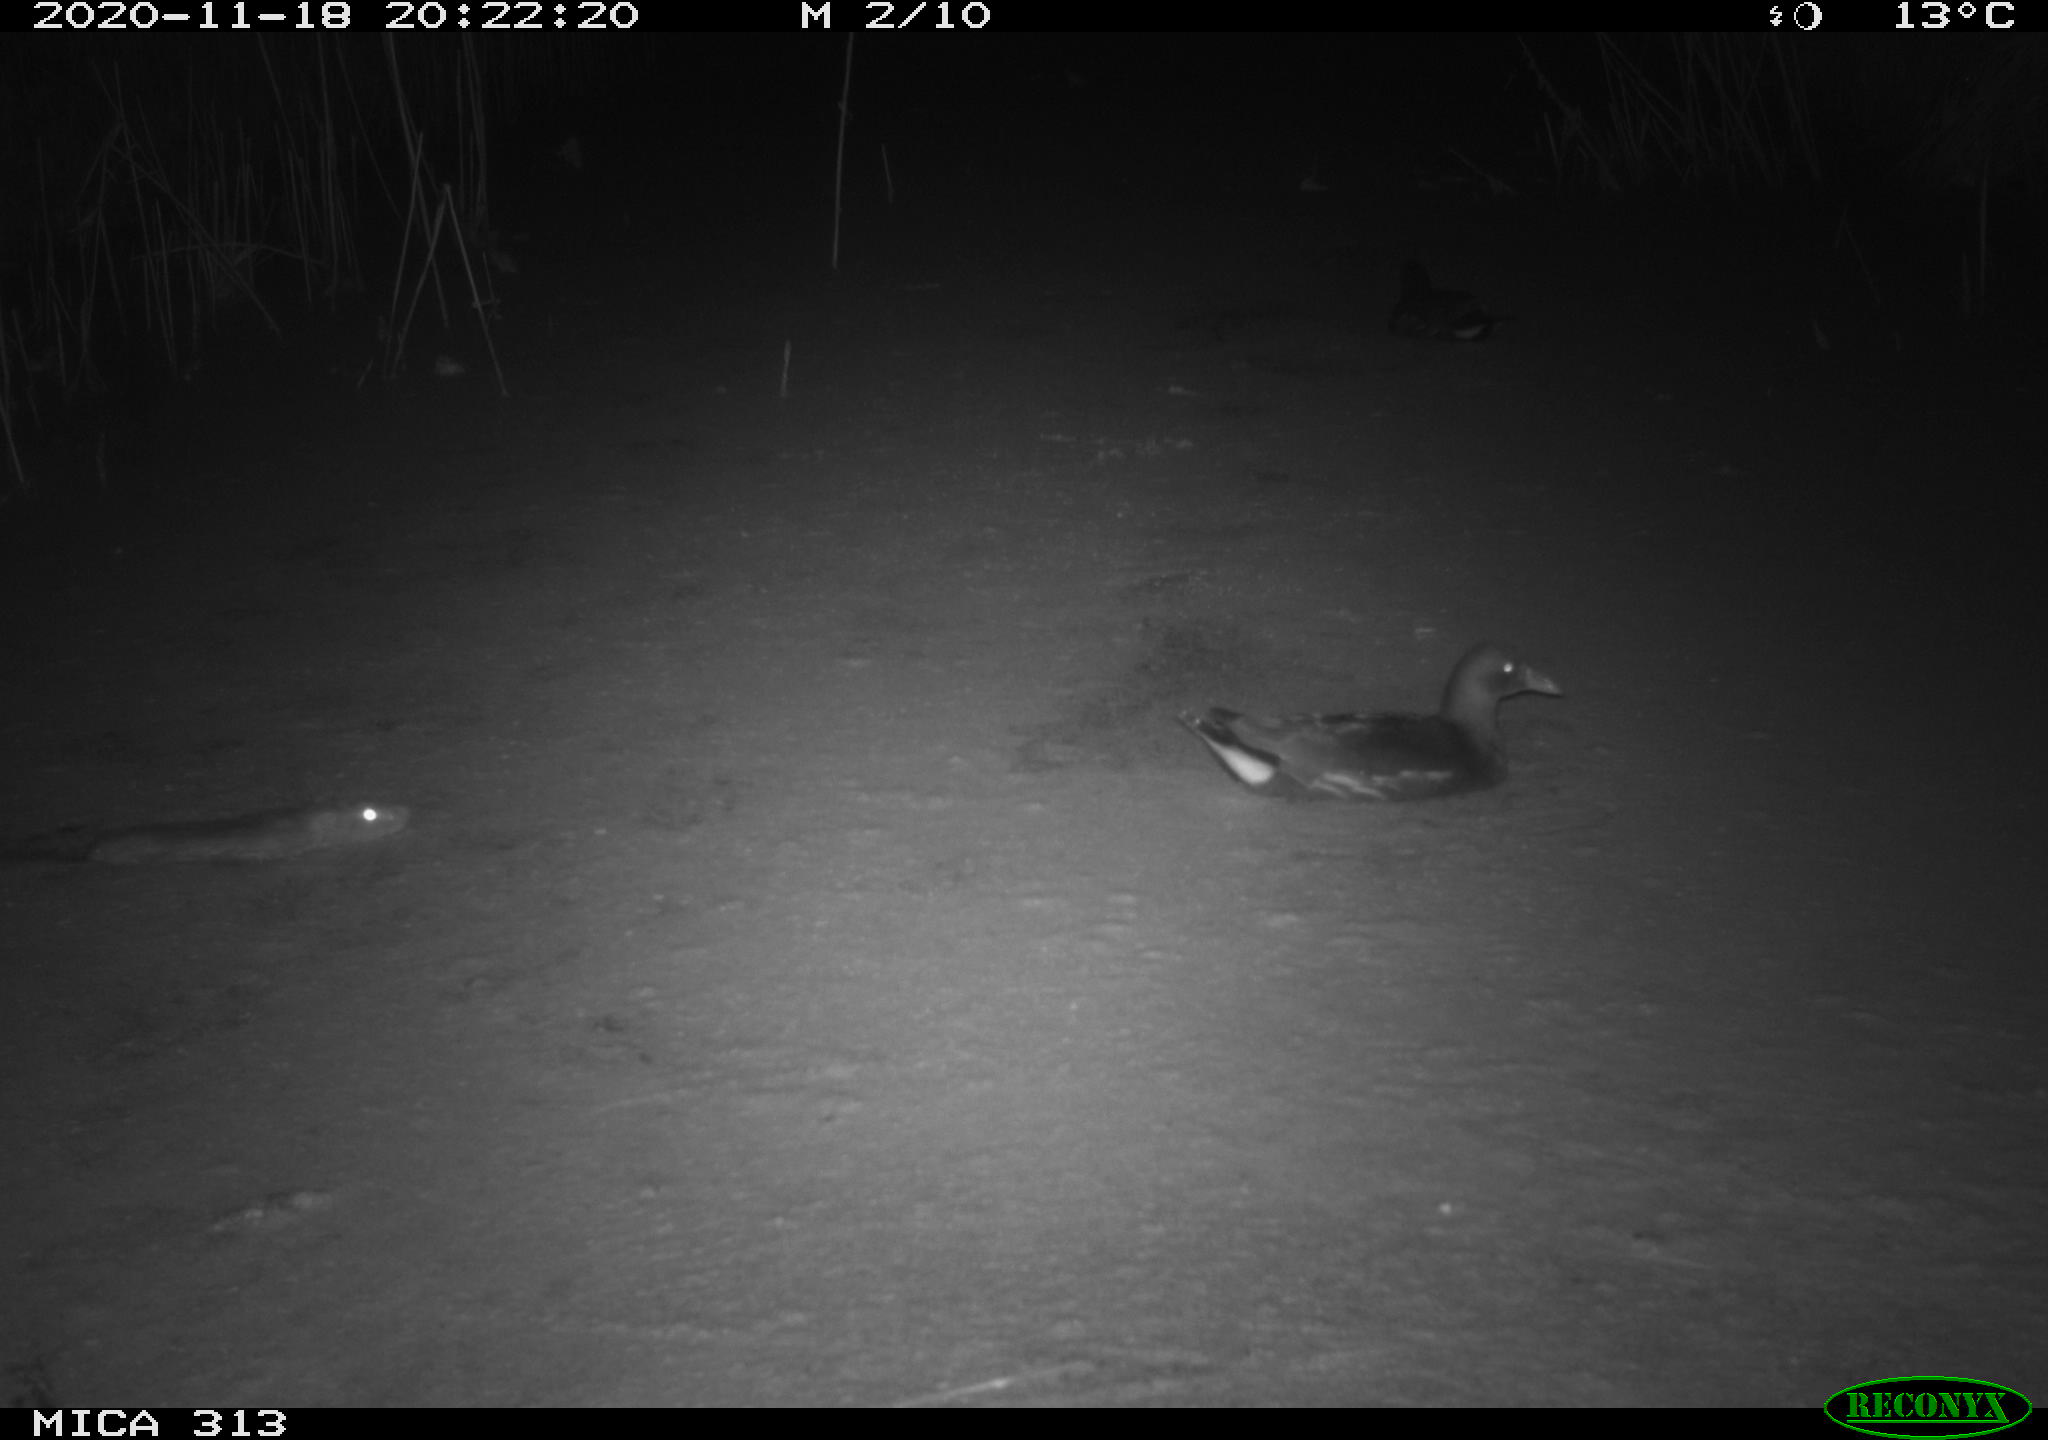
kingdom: Animalia
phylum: Chordata
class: Aves
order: Gruiformes
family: Rallidae
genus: Gallinula
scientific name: Gallinula chloropus
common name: Common moorhen
